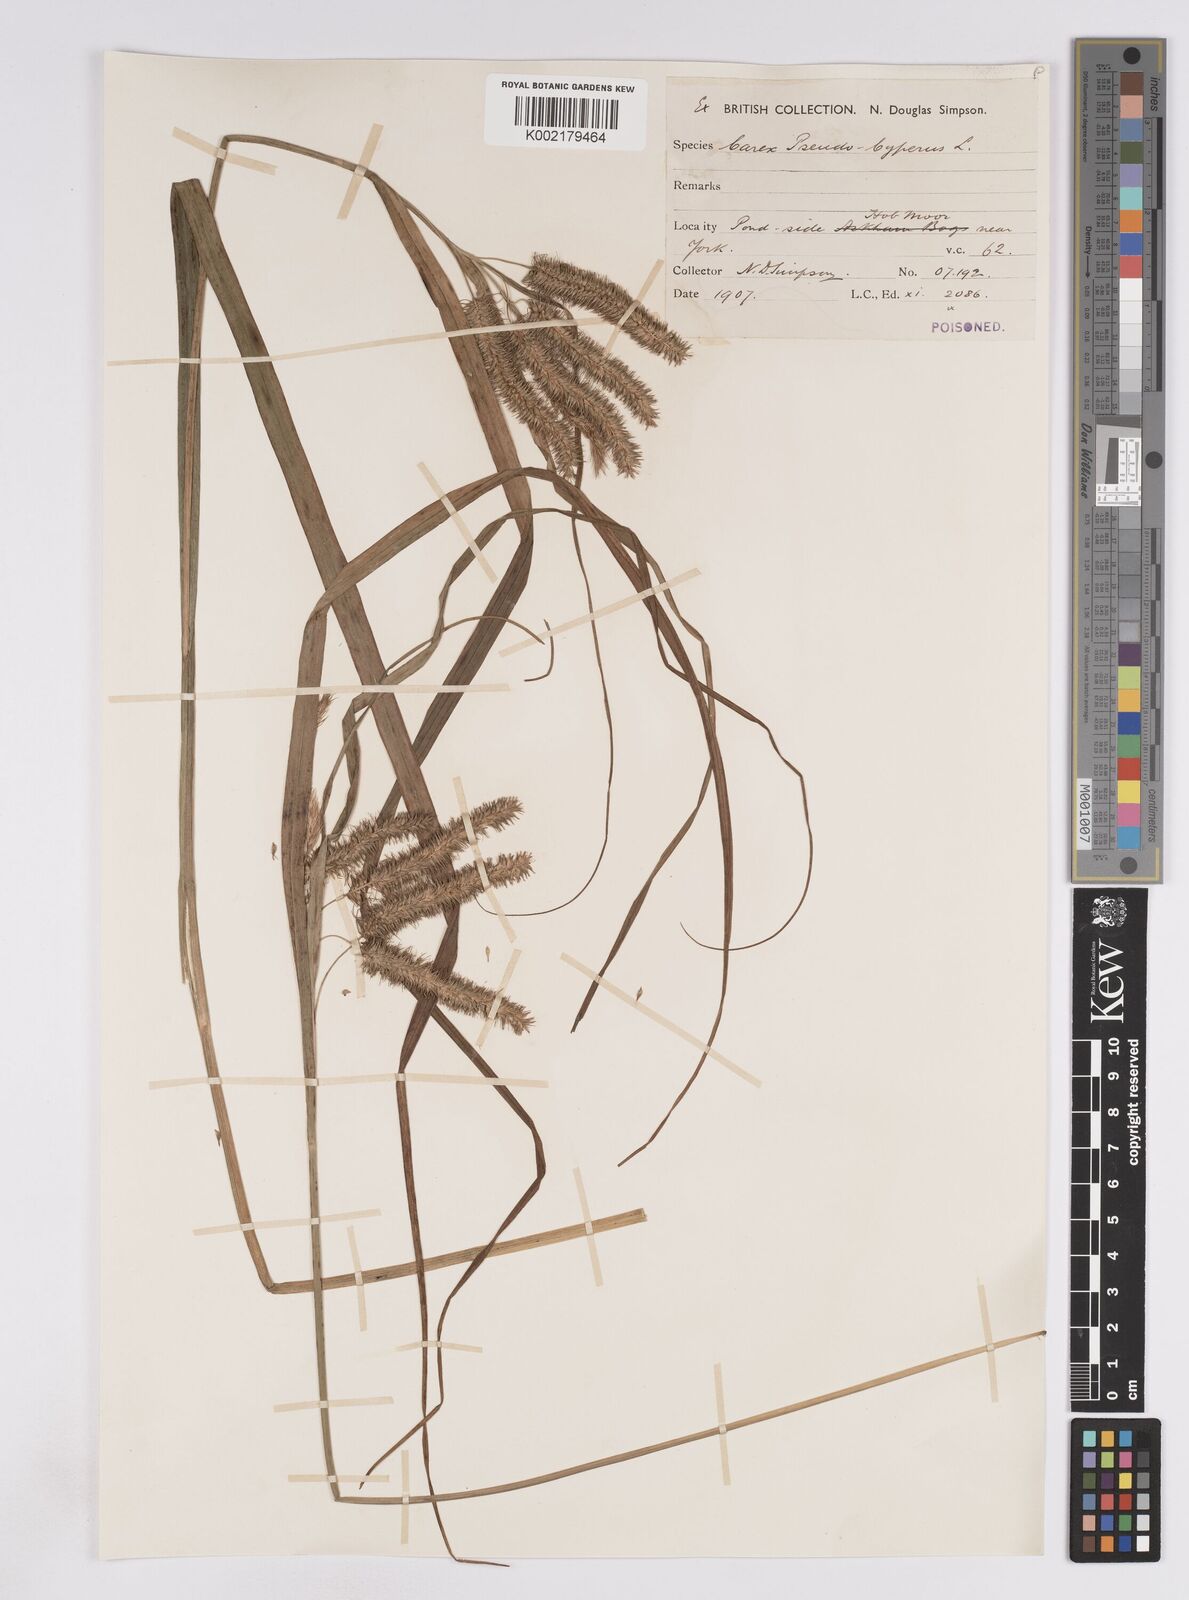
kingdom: Plantae
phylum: Tracheophyta
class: Liliopsida
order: Poales
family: Cyperaceae
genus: Carex
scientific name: Carex pseudocyperus
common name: Cyperus sedge
